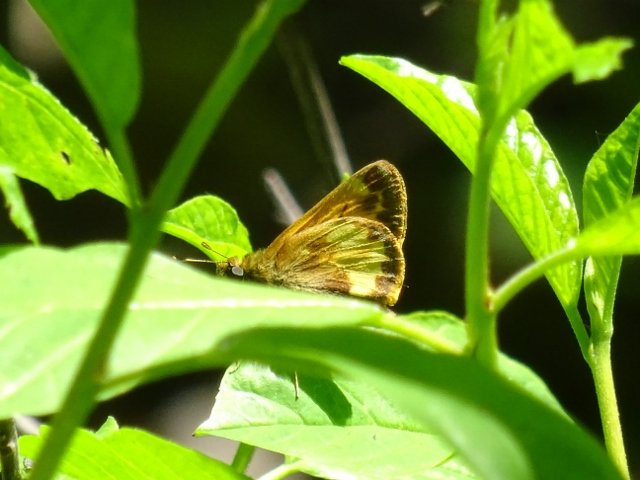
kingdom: Animalia
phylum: Arthropoda
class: Insecta
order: Lepidoptera
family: Hesperiidae
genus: Lon
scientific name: Lon hobomok
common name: Hobomok Skipper
